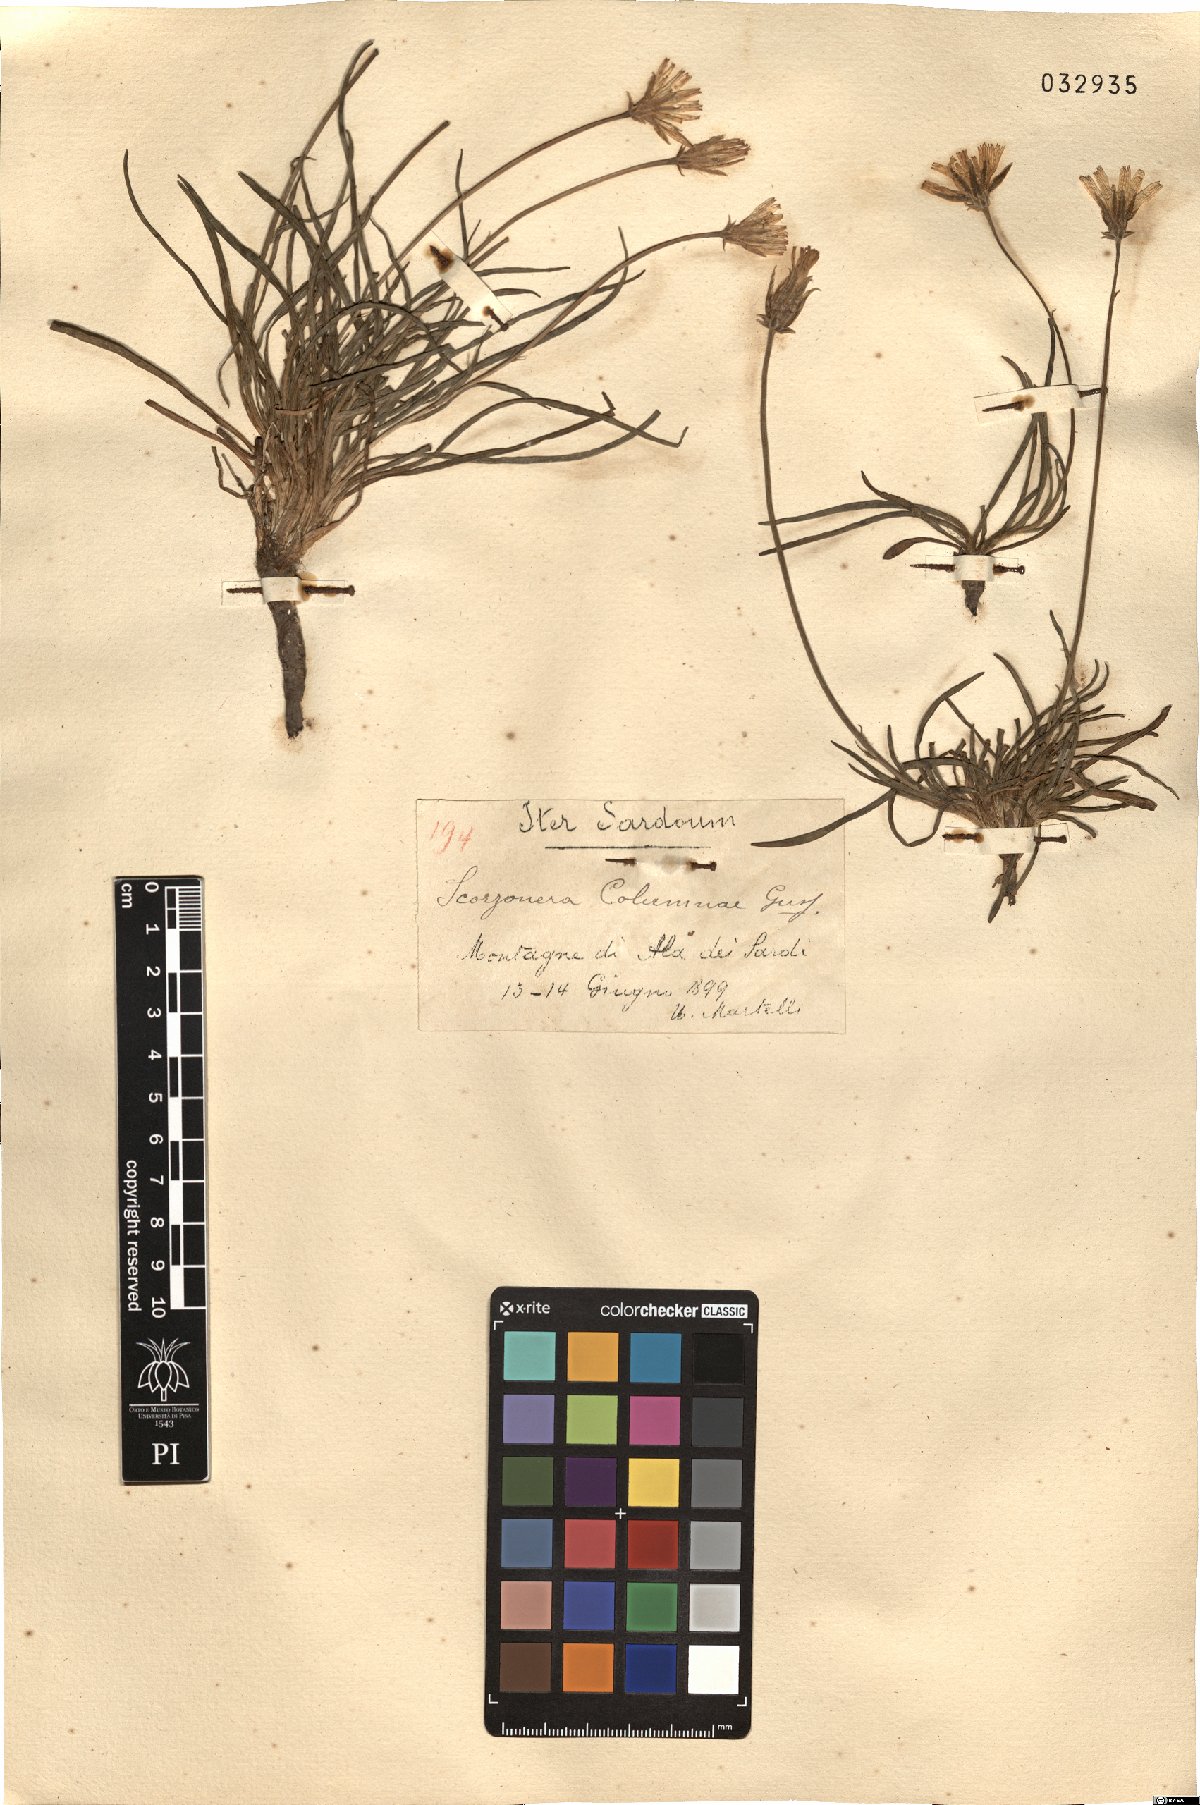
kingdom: Plantae
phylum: Tracheophyta
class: Magnoliopsida
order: Asterales
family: Asteraceae
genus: Gelasia
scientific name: Gelasia villosa
